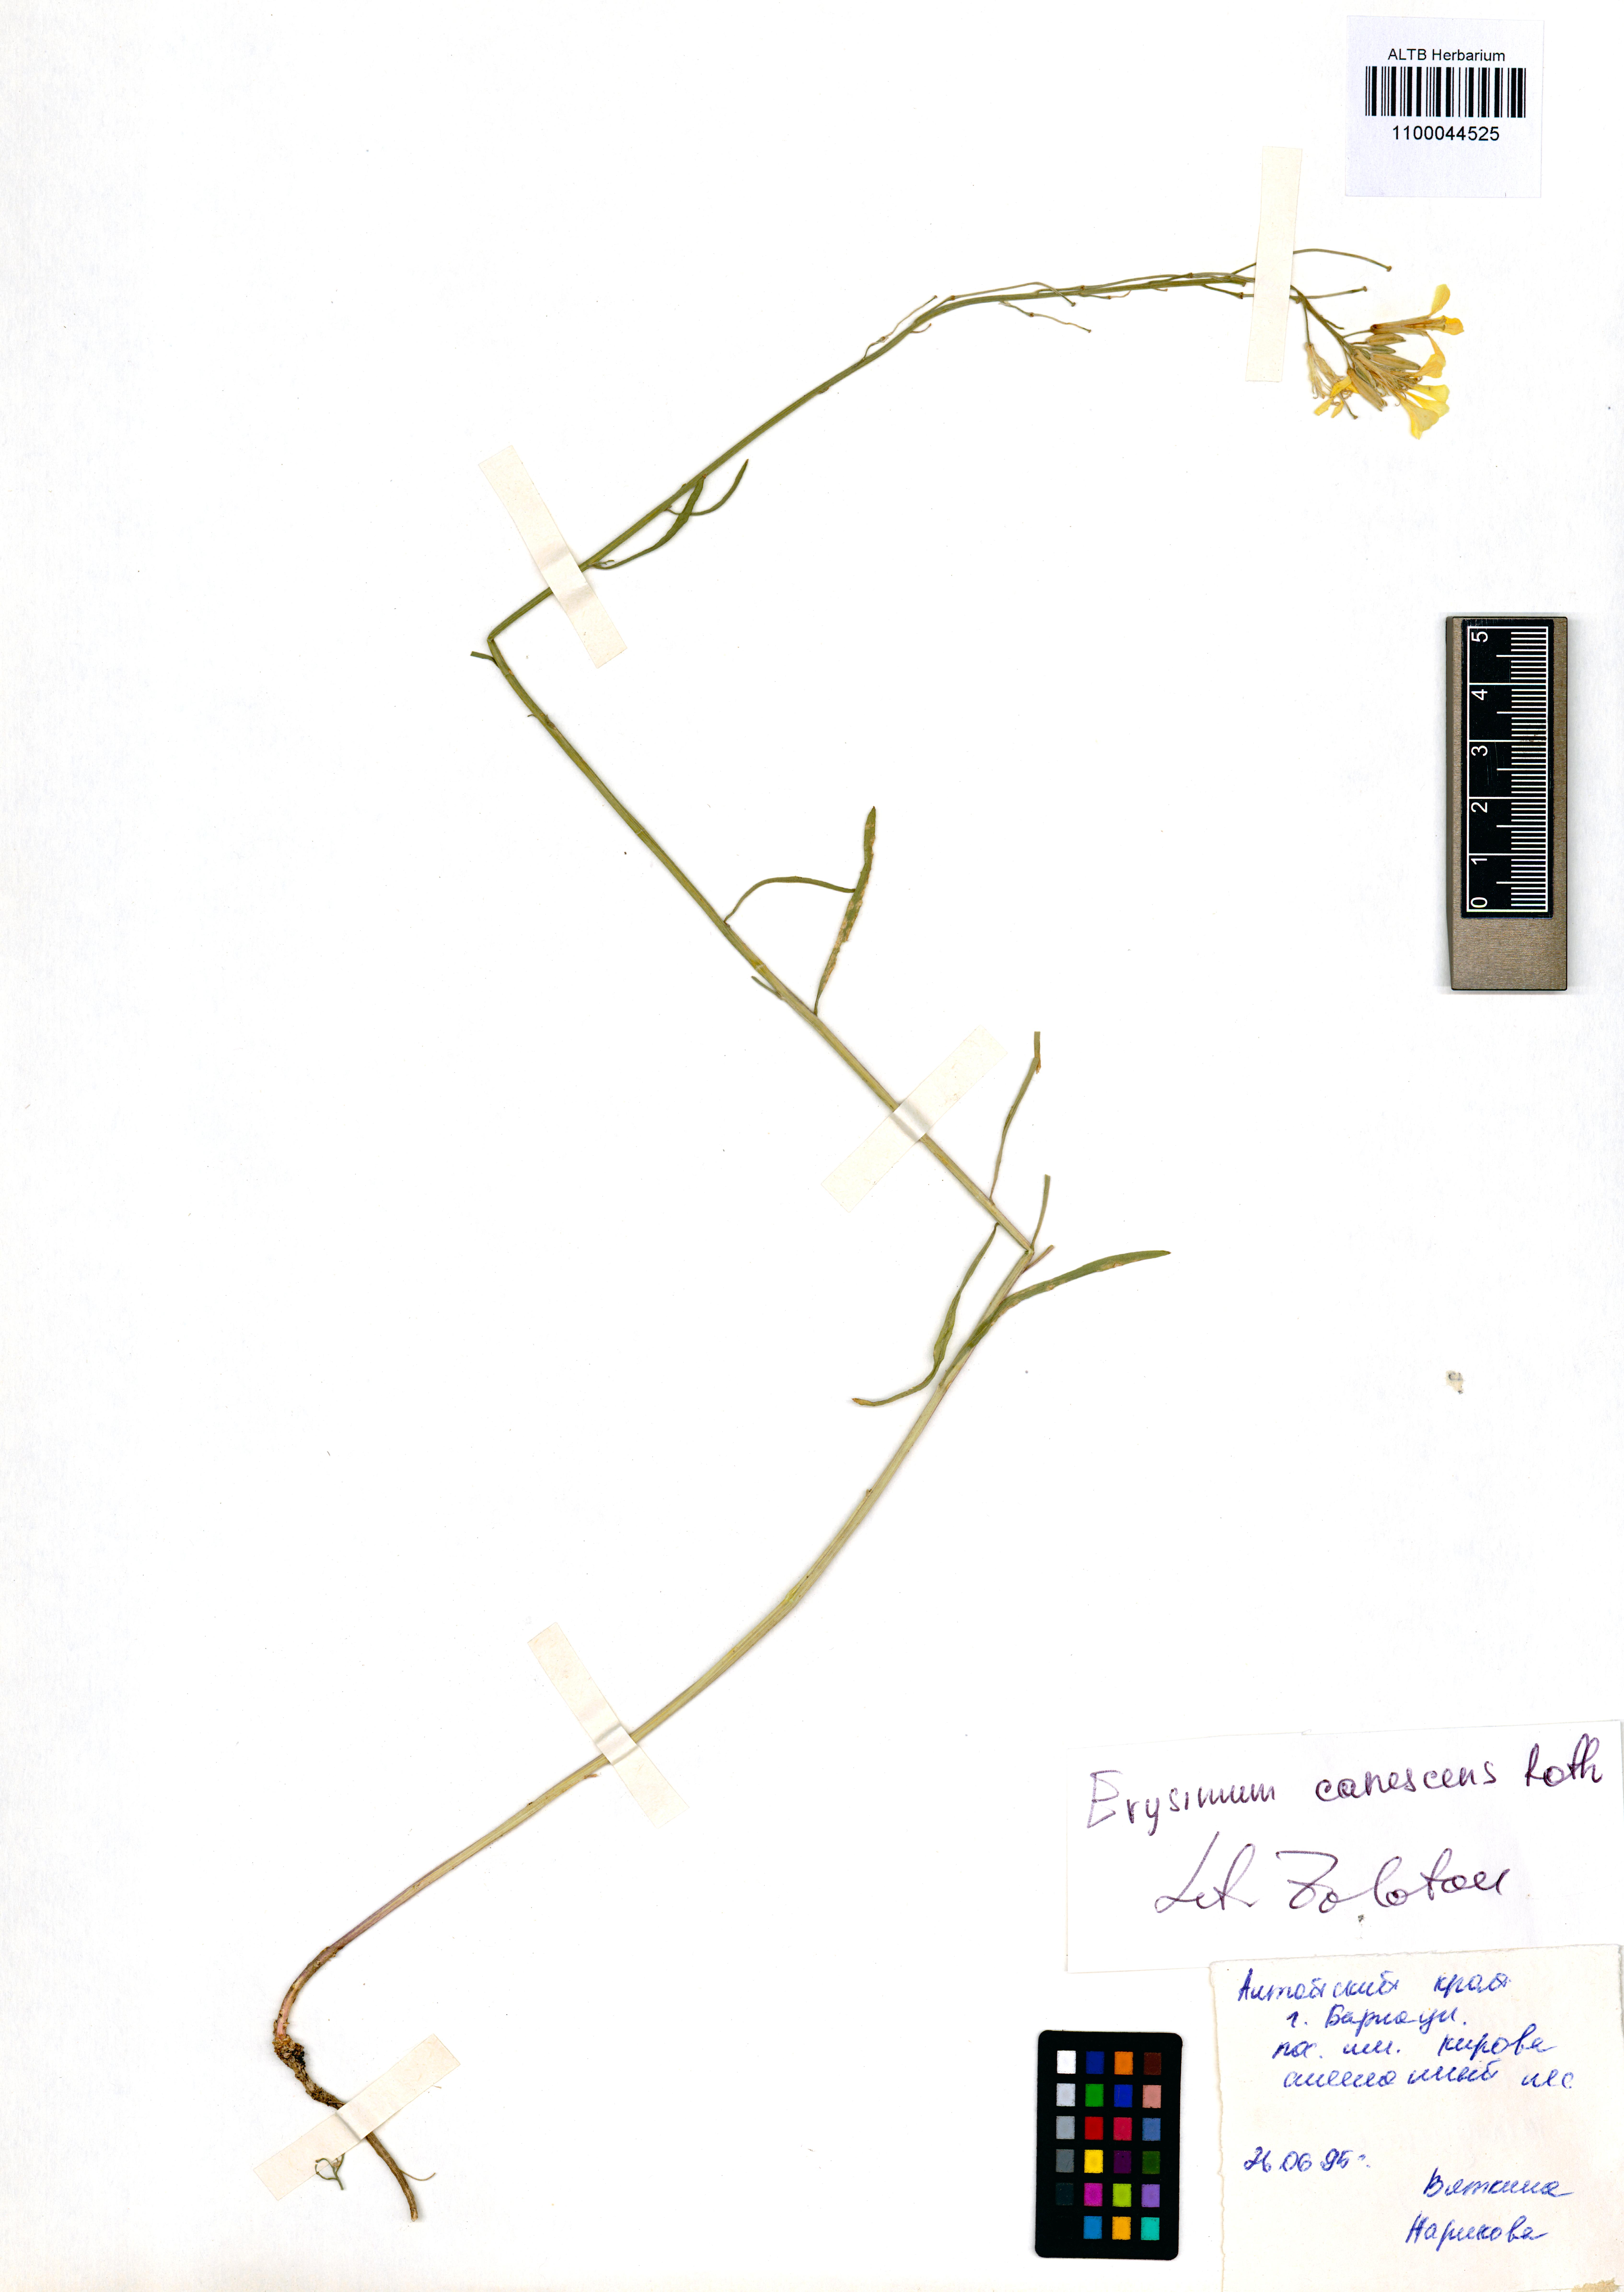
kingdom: Plantae
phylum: Tracheophyta
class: Magnoliopsida
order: Brassicales
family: Brassicaceae
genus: Erysimum
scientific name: Erysimum canescens
